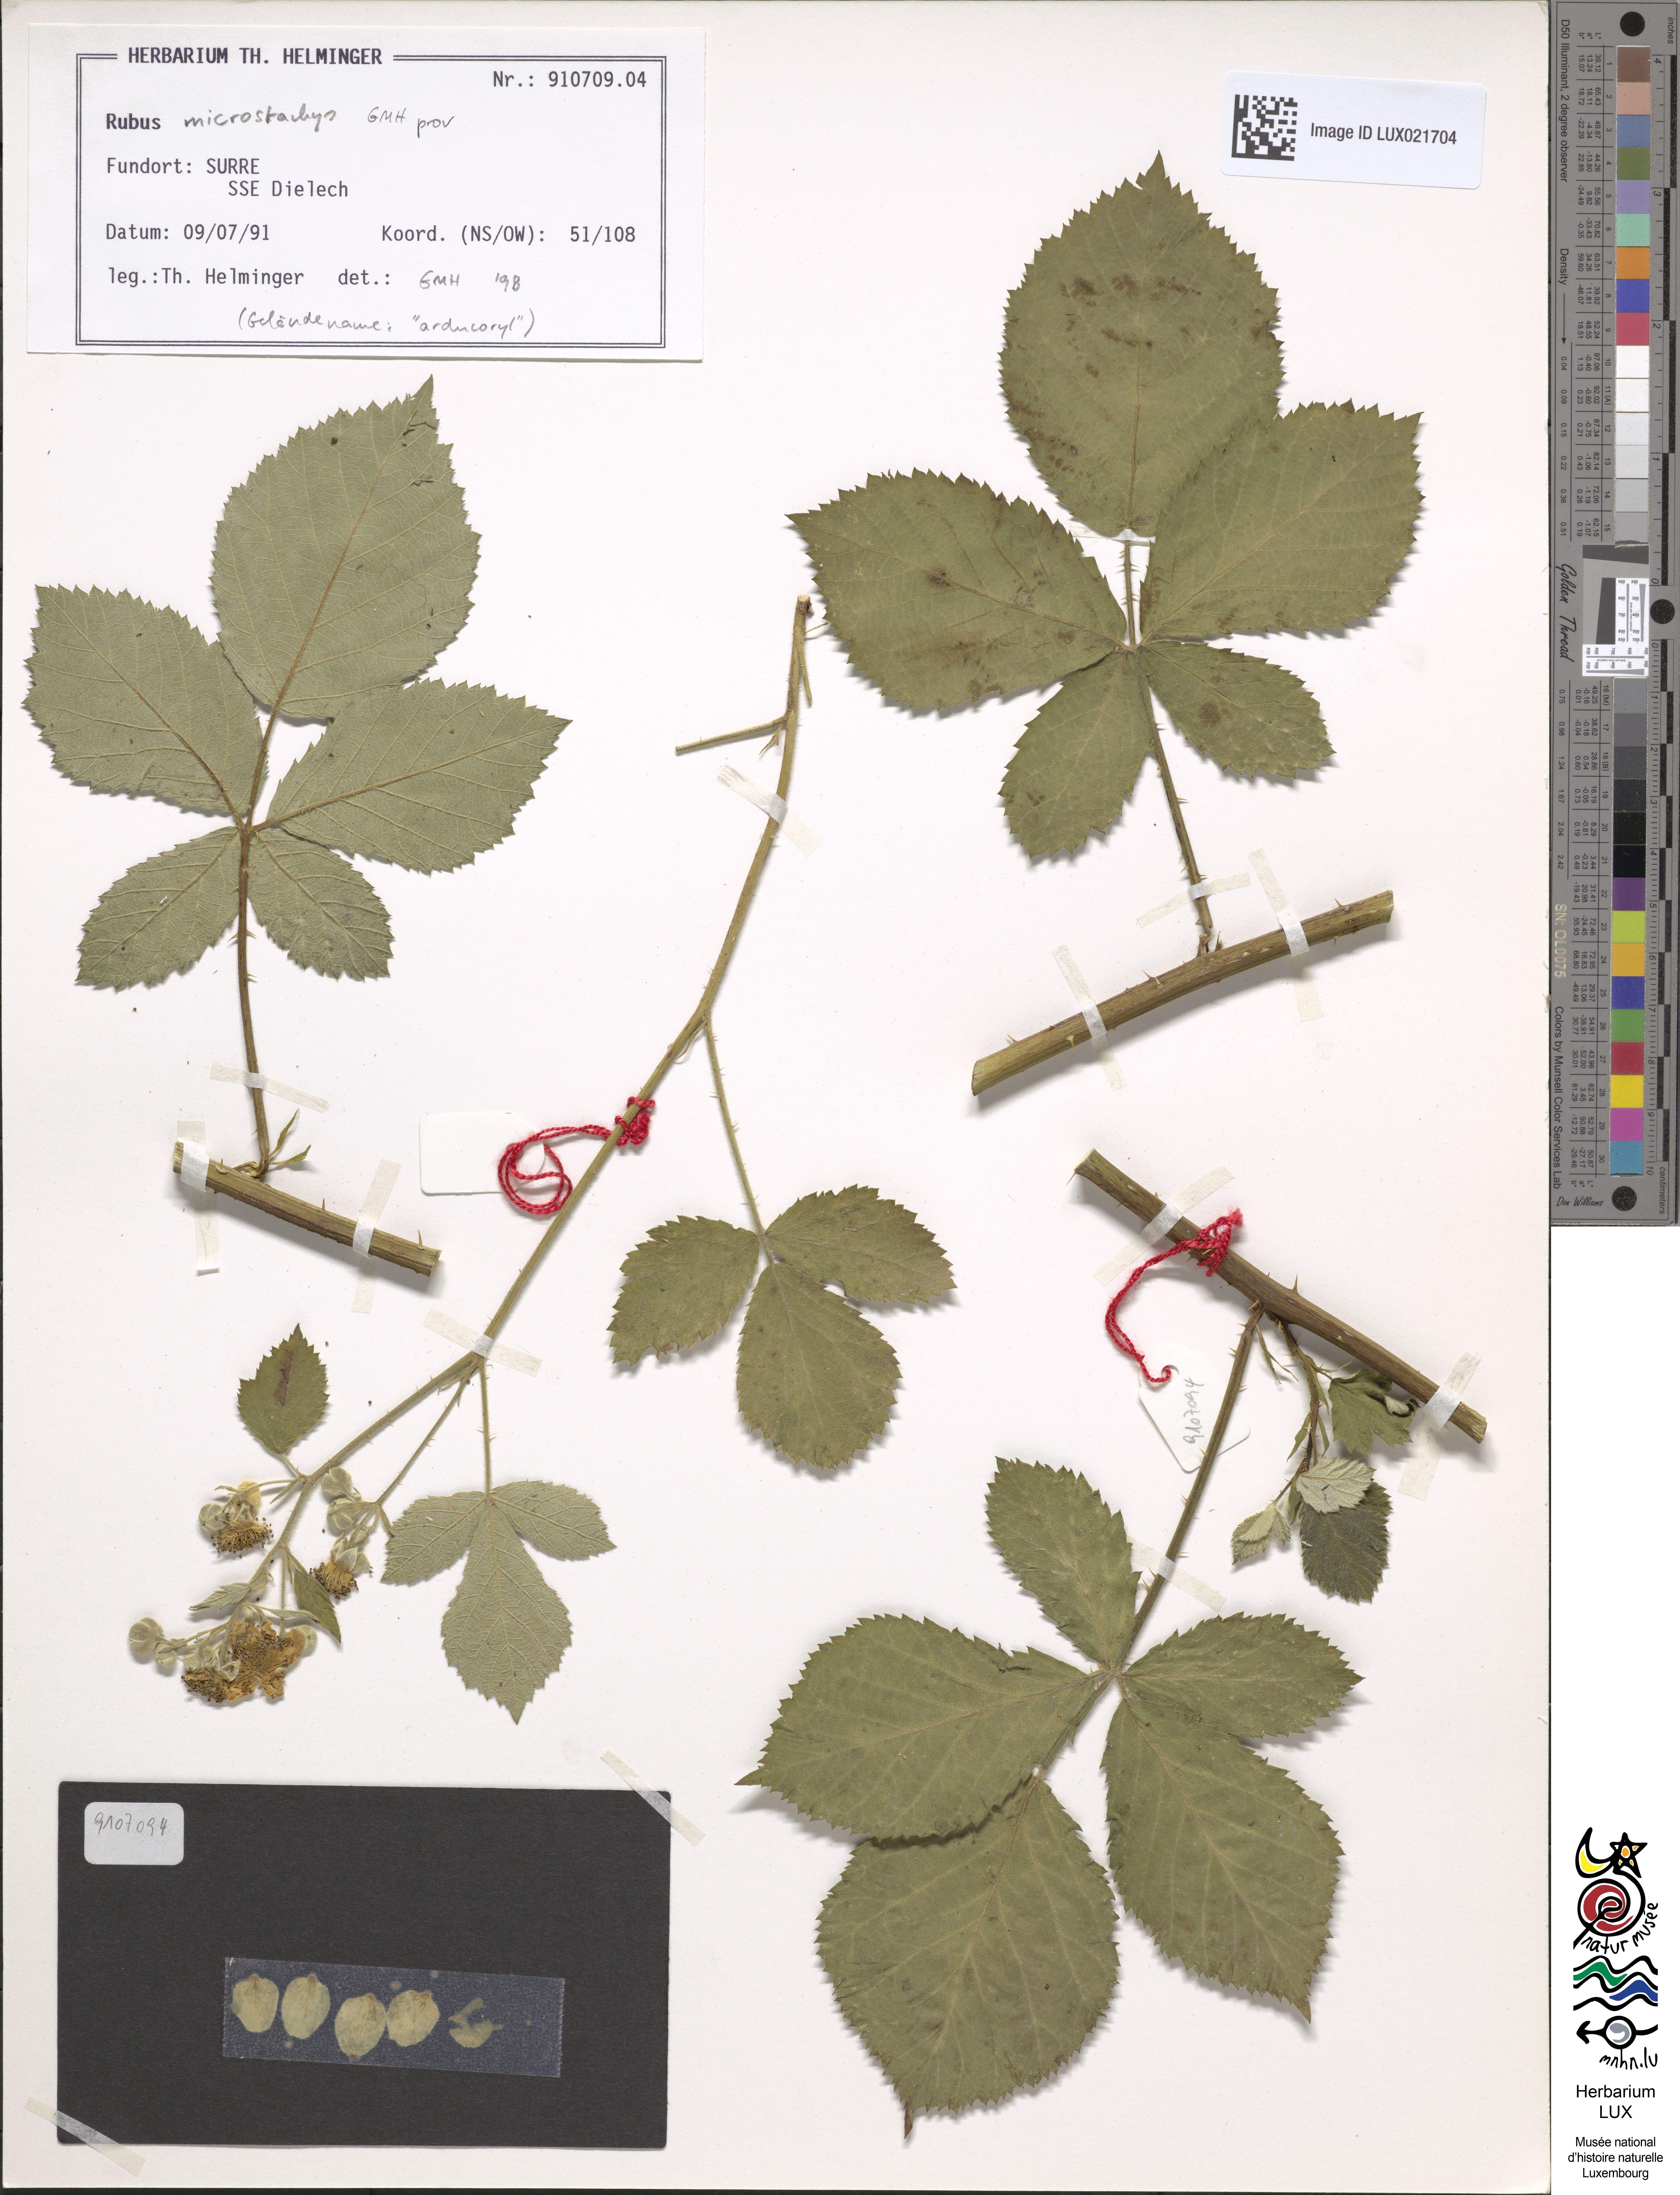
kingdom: Plantae
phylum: Tracheophyta
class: Magnoliopsida
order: Rosales
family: Rosaceae
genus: Rubus
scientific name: Rubus
